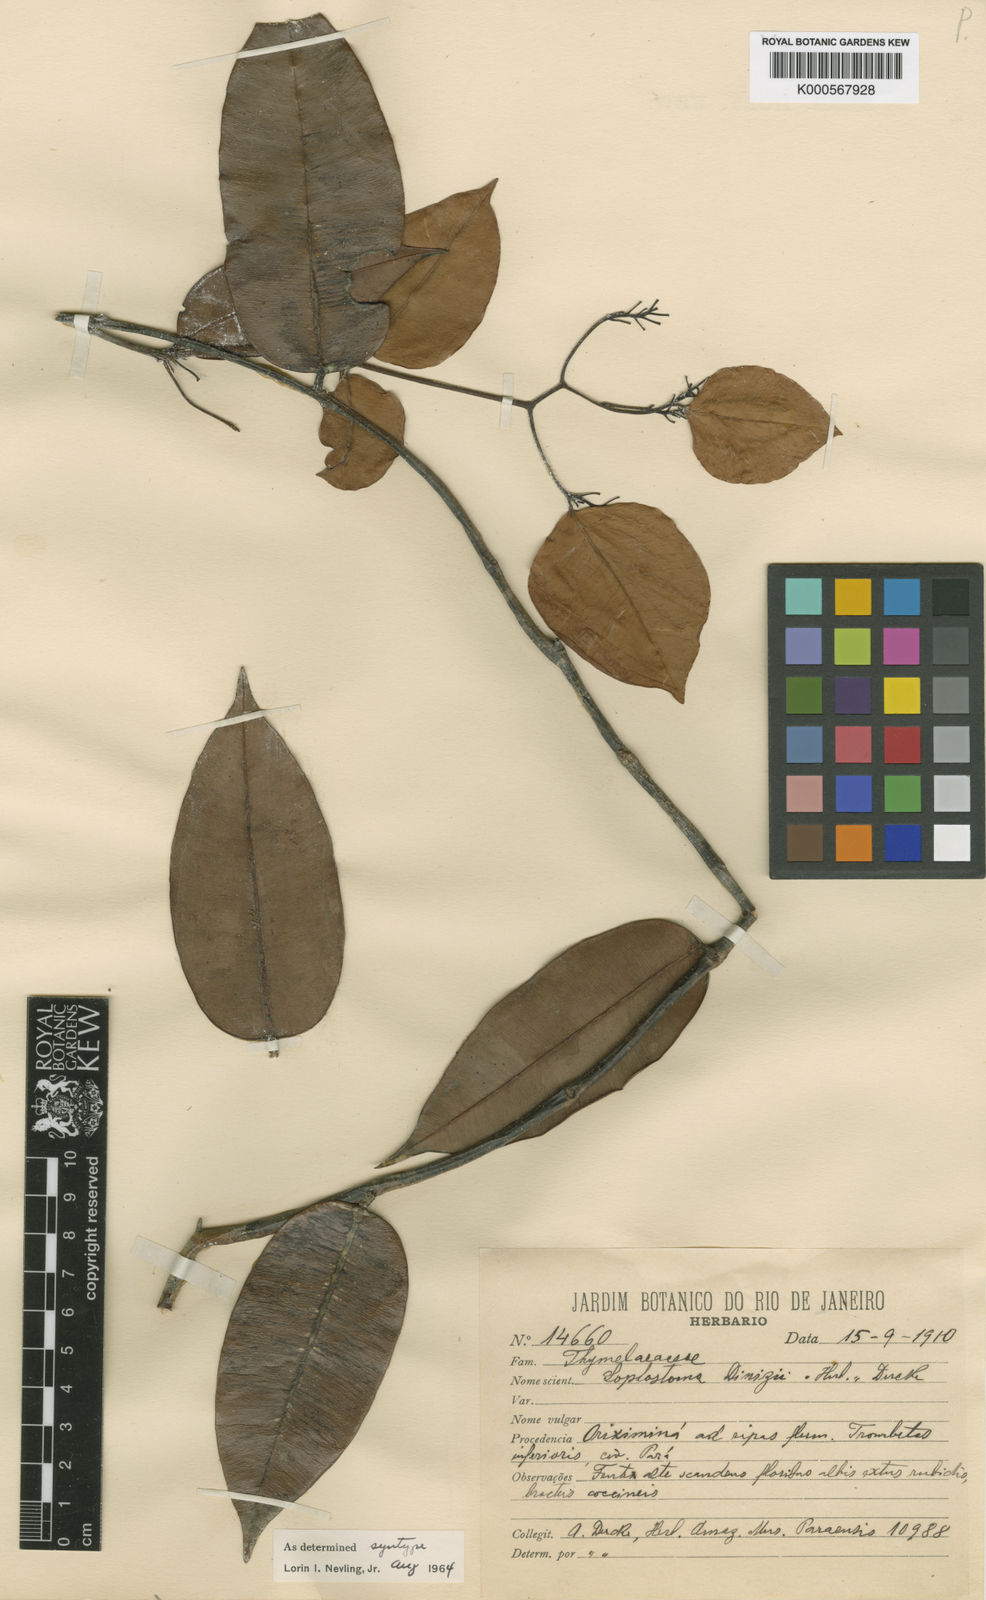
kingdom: Plantae
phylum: Tracheophyta
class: Magnoliopsida
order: Malvales
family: Thymelaeaceae
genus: Lophostoma
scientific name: Lophostoma dinizii
